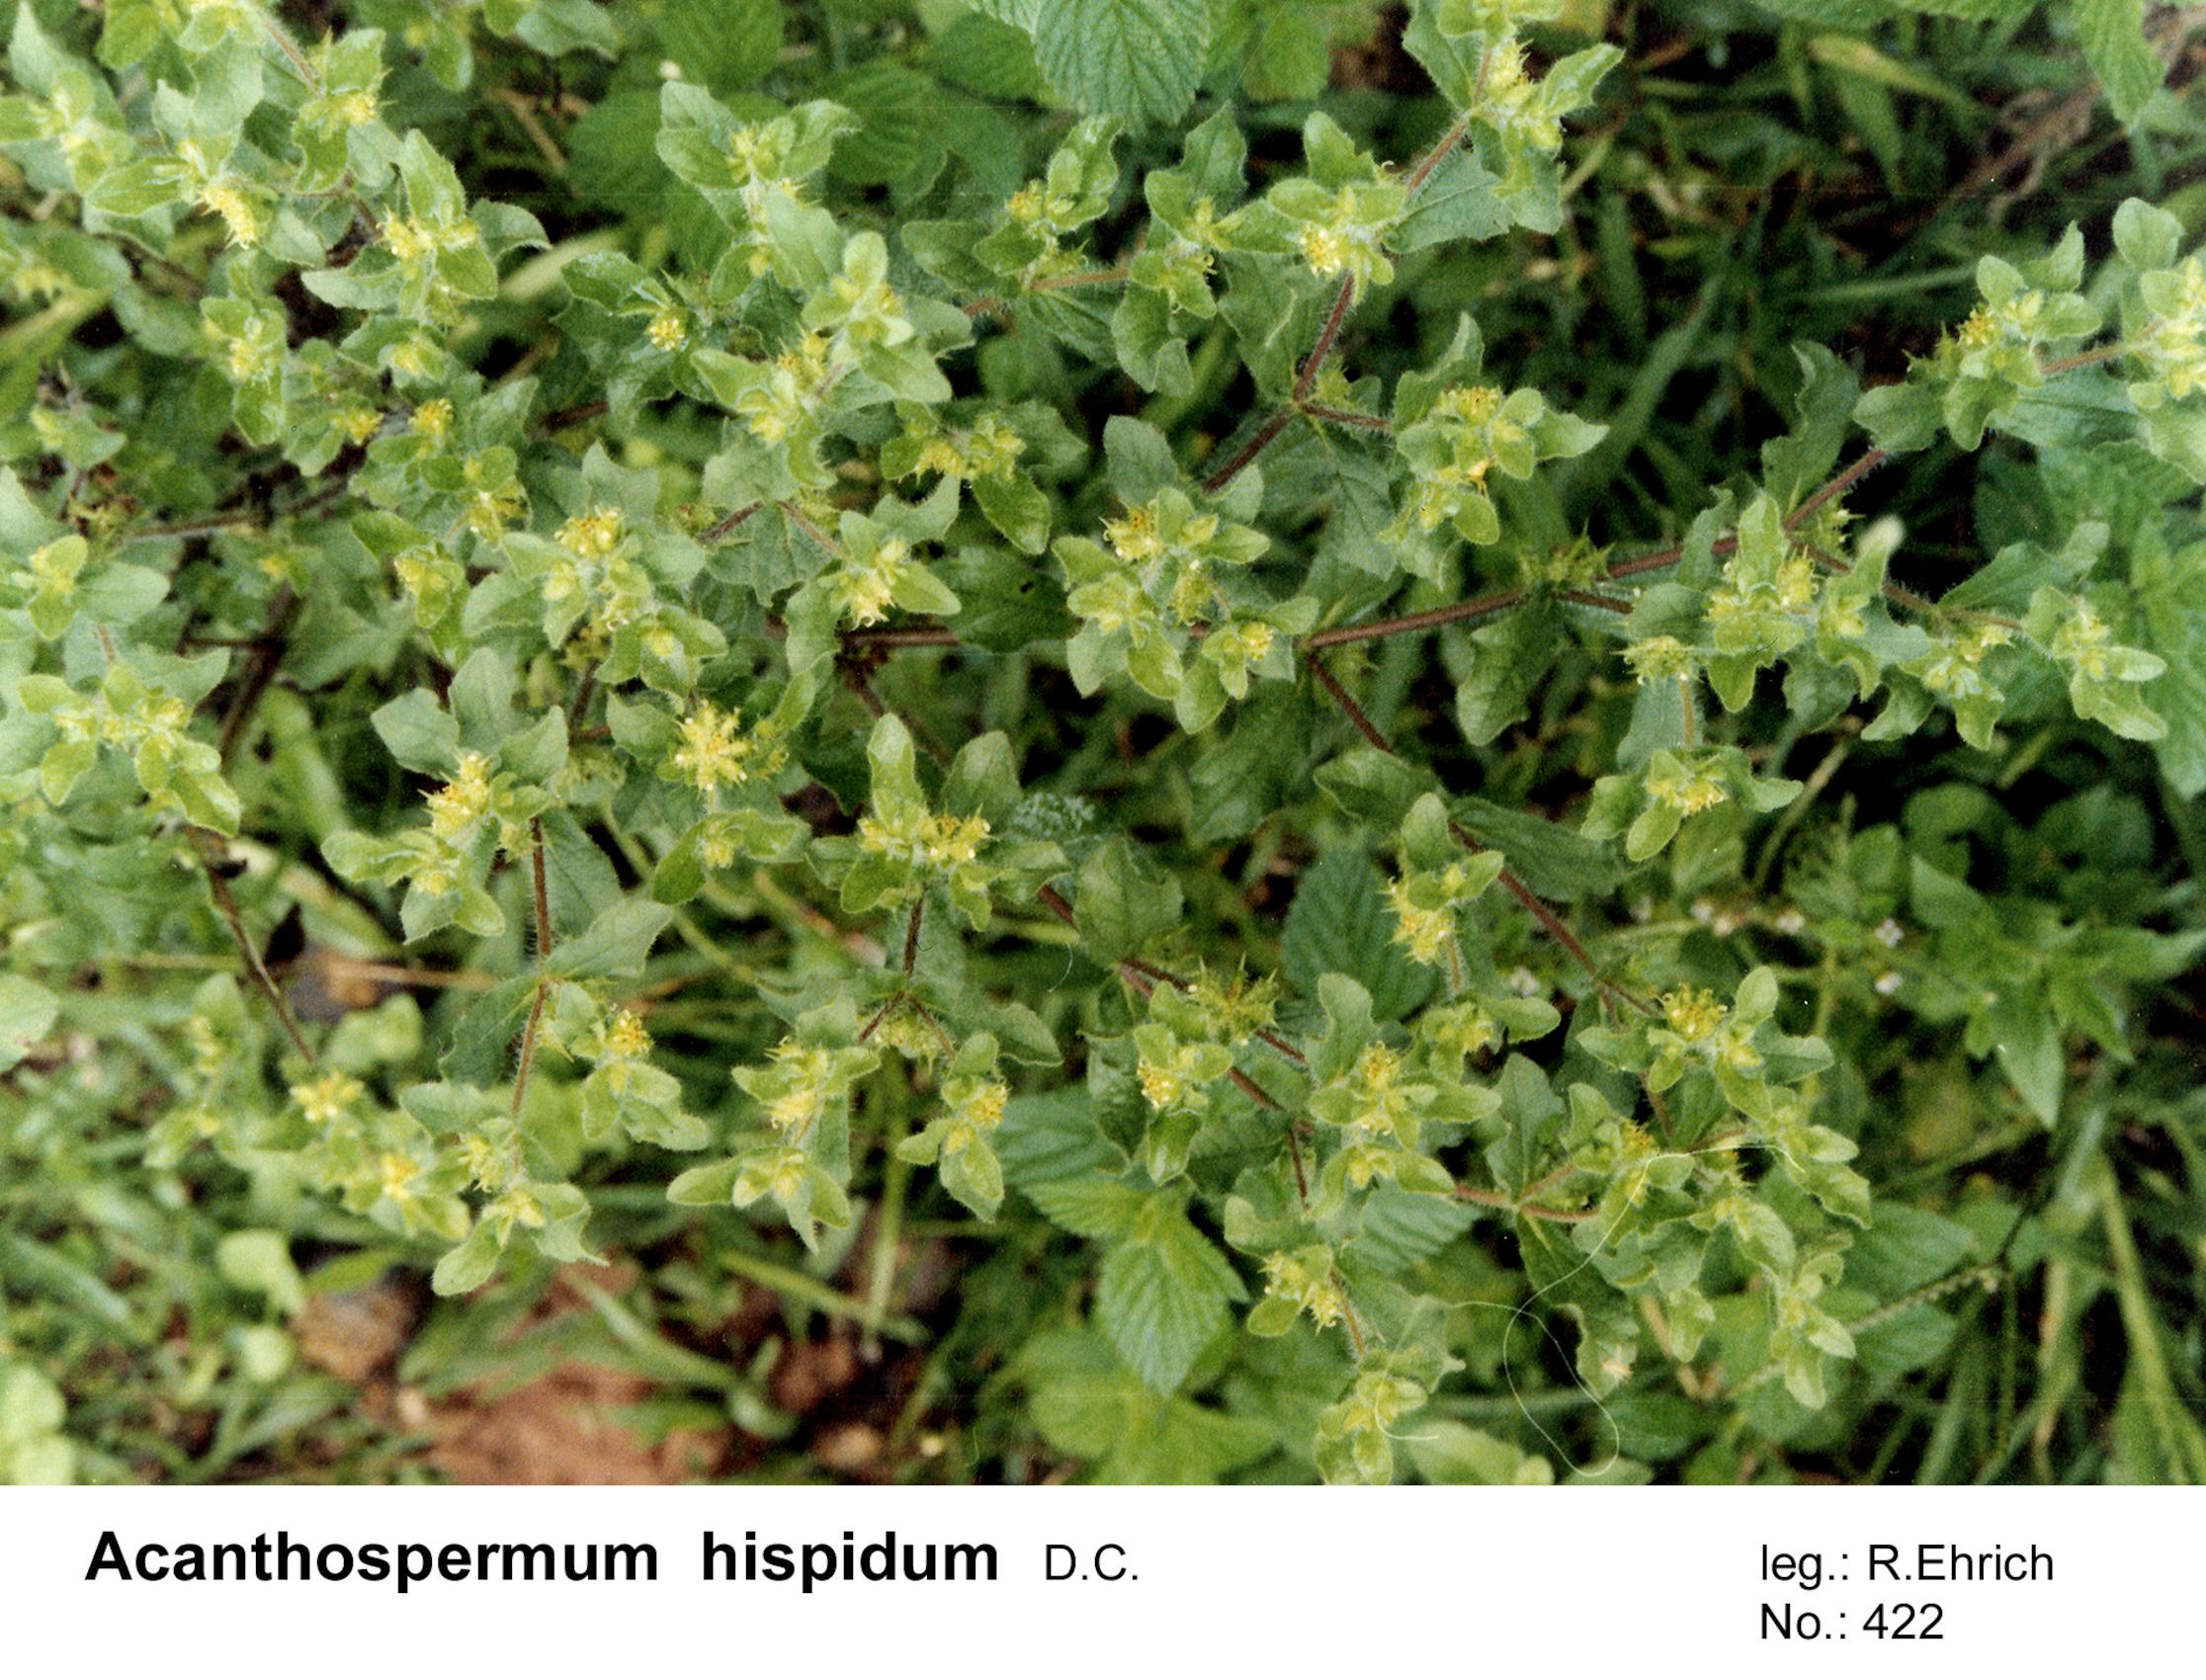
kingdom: Plantae
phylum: Tracheophyta
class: Magnoliopsida
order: Asterales
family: Asteraceae
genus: Acanthospermum
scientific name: Acanthospermum hispidum
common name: Hispid starbur
